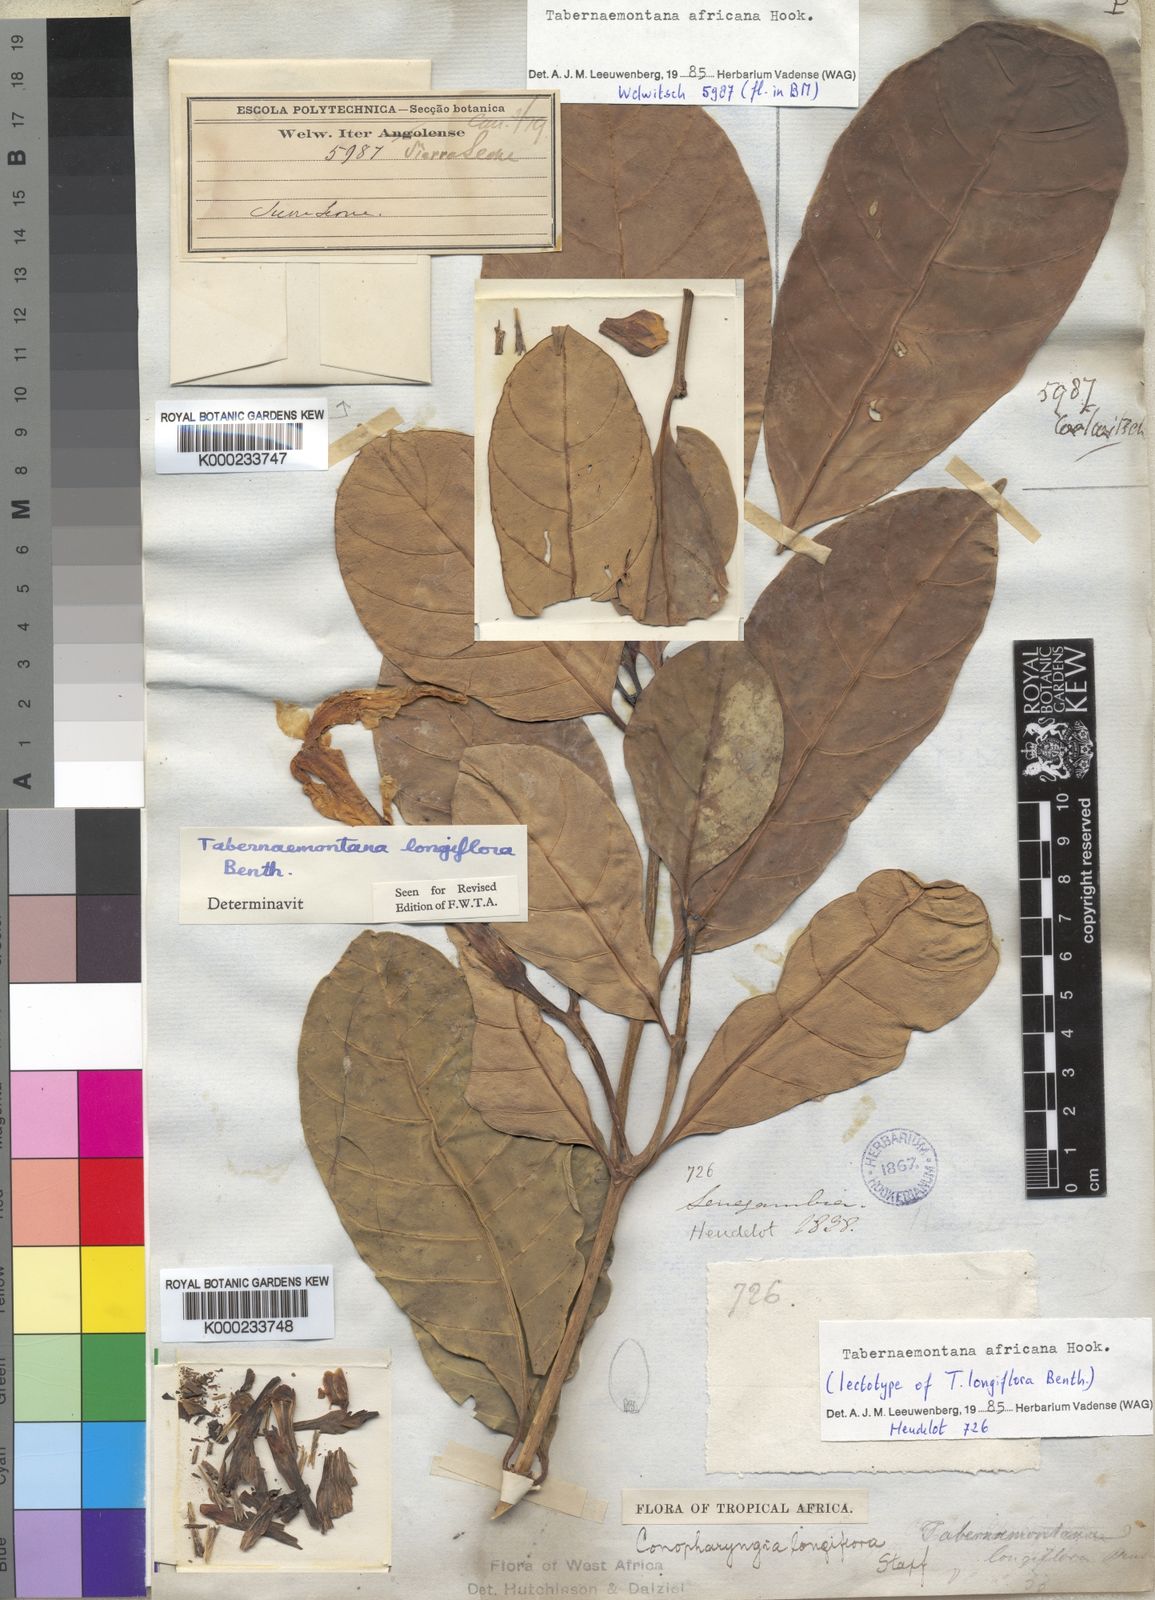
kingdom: Plantae
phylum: Tracheophyta
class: Magnoliopsida
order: Gentianales
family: Apocynaceae
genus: Tabernaemontana
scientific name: Tabernaemontana
